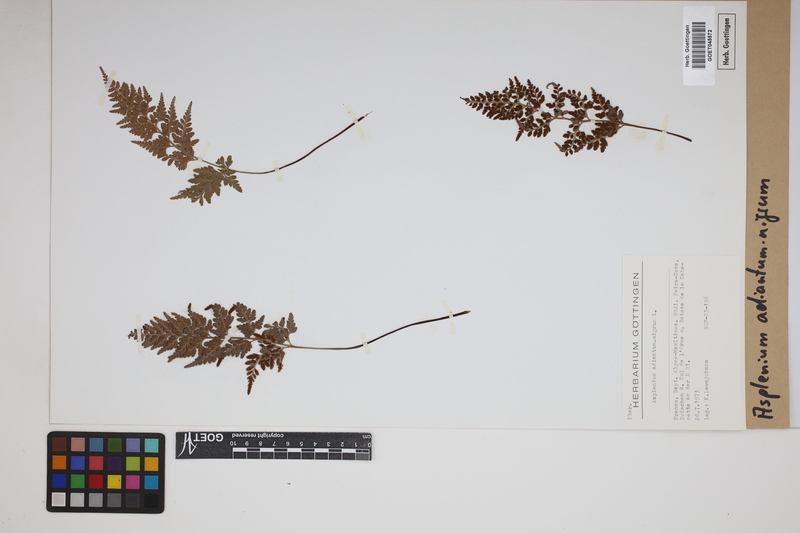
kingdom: Plantae
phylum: Tracheophyta
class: Polypodiopsida
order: Polypodiales
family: Aspleniaceae
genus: Asplenium
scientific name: Asplenium adiantum-nigrum
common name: Black spleenwort
